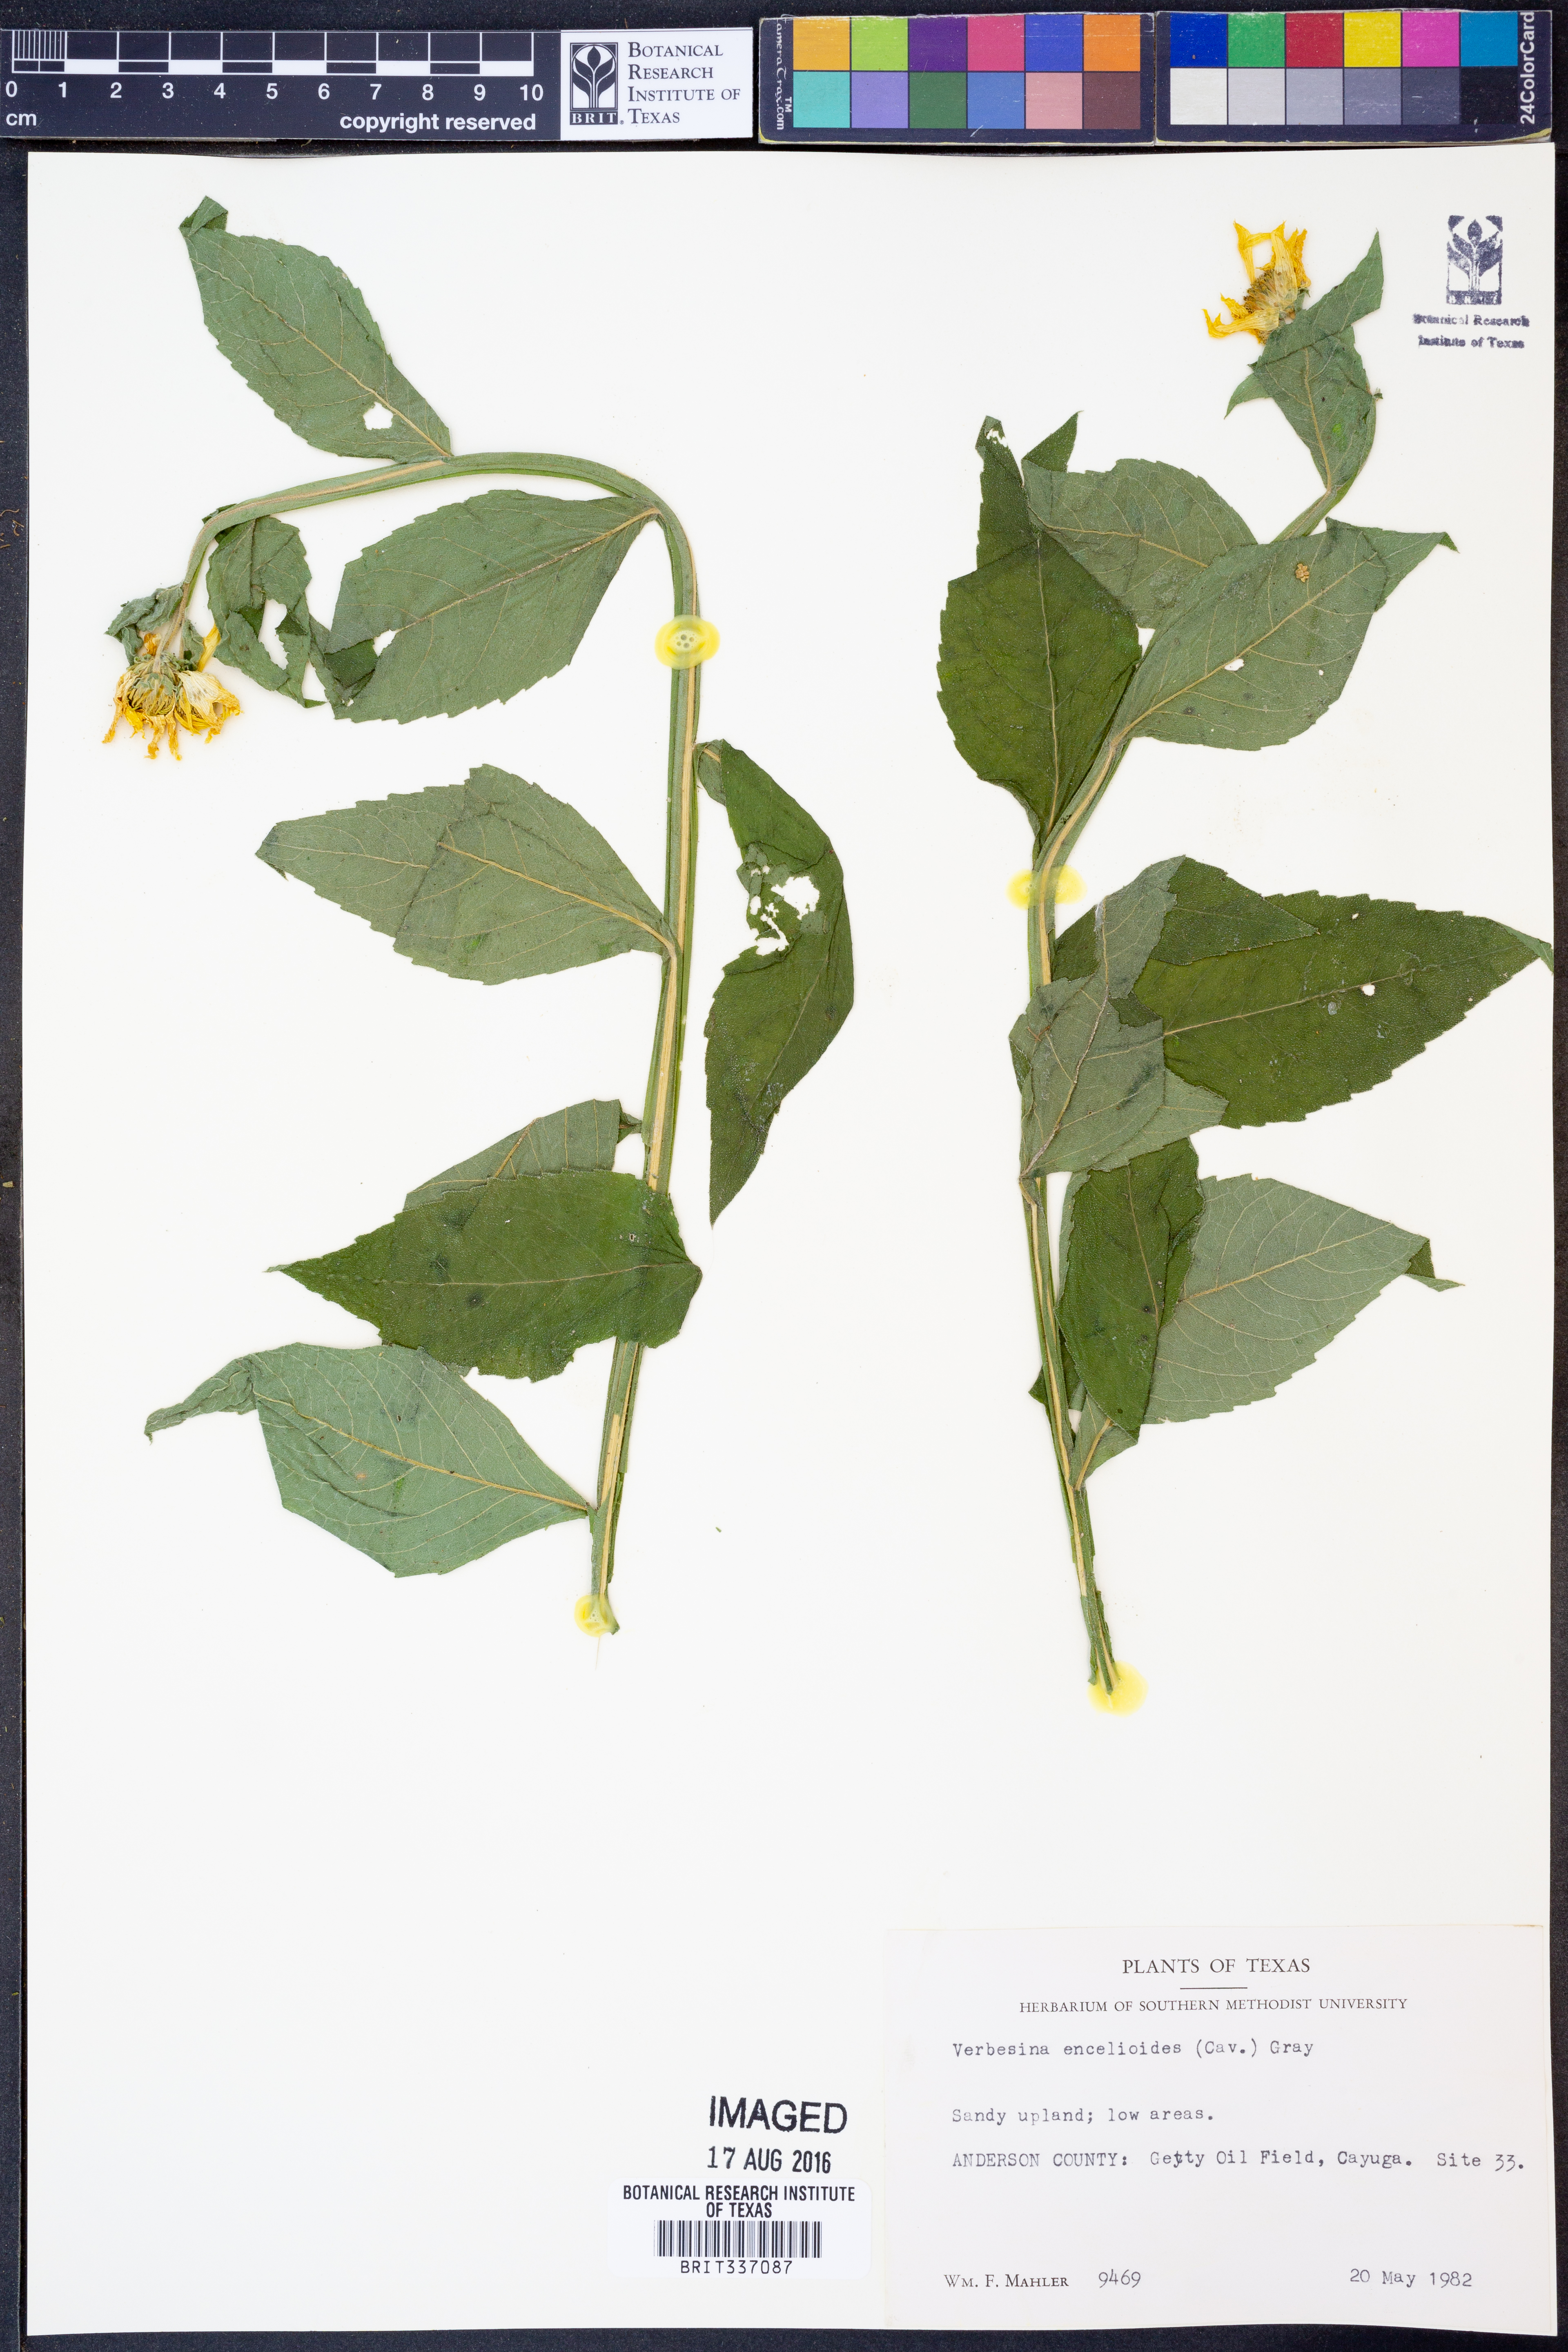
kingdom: Plantae
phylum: Tracheophyta
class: Magnoliopsida
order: Asterales
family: Asteraceae
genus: Verbesina
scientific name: Verbesina encelioides
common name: Golden crownbeard
